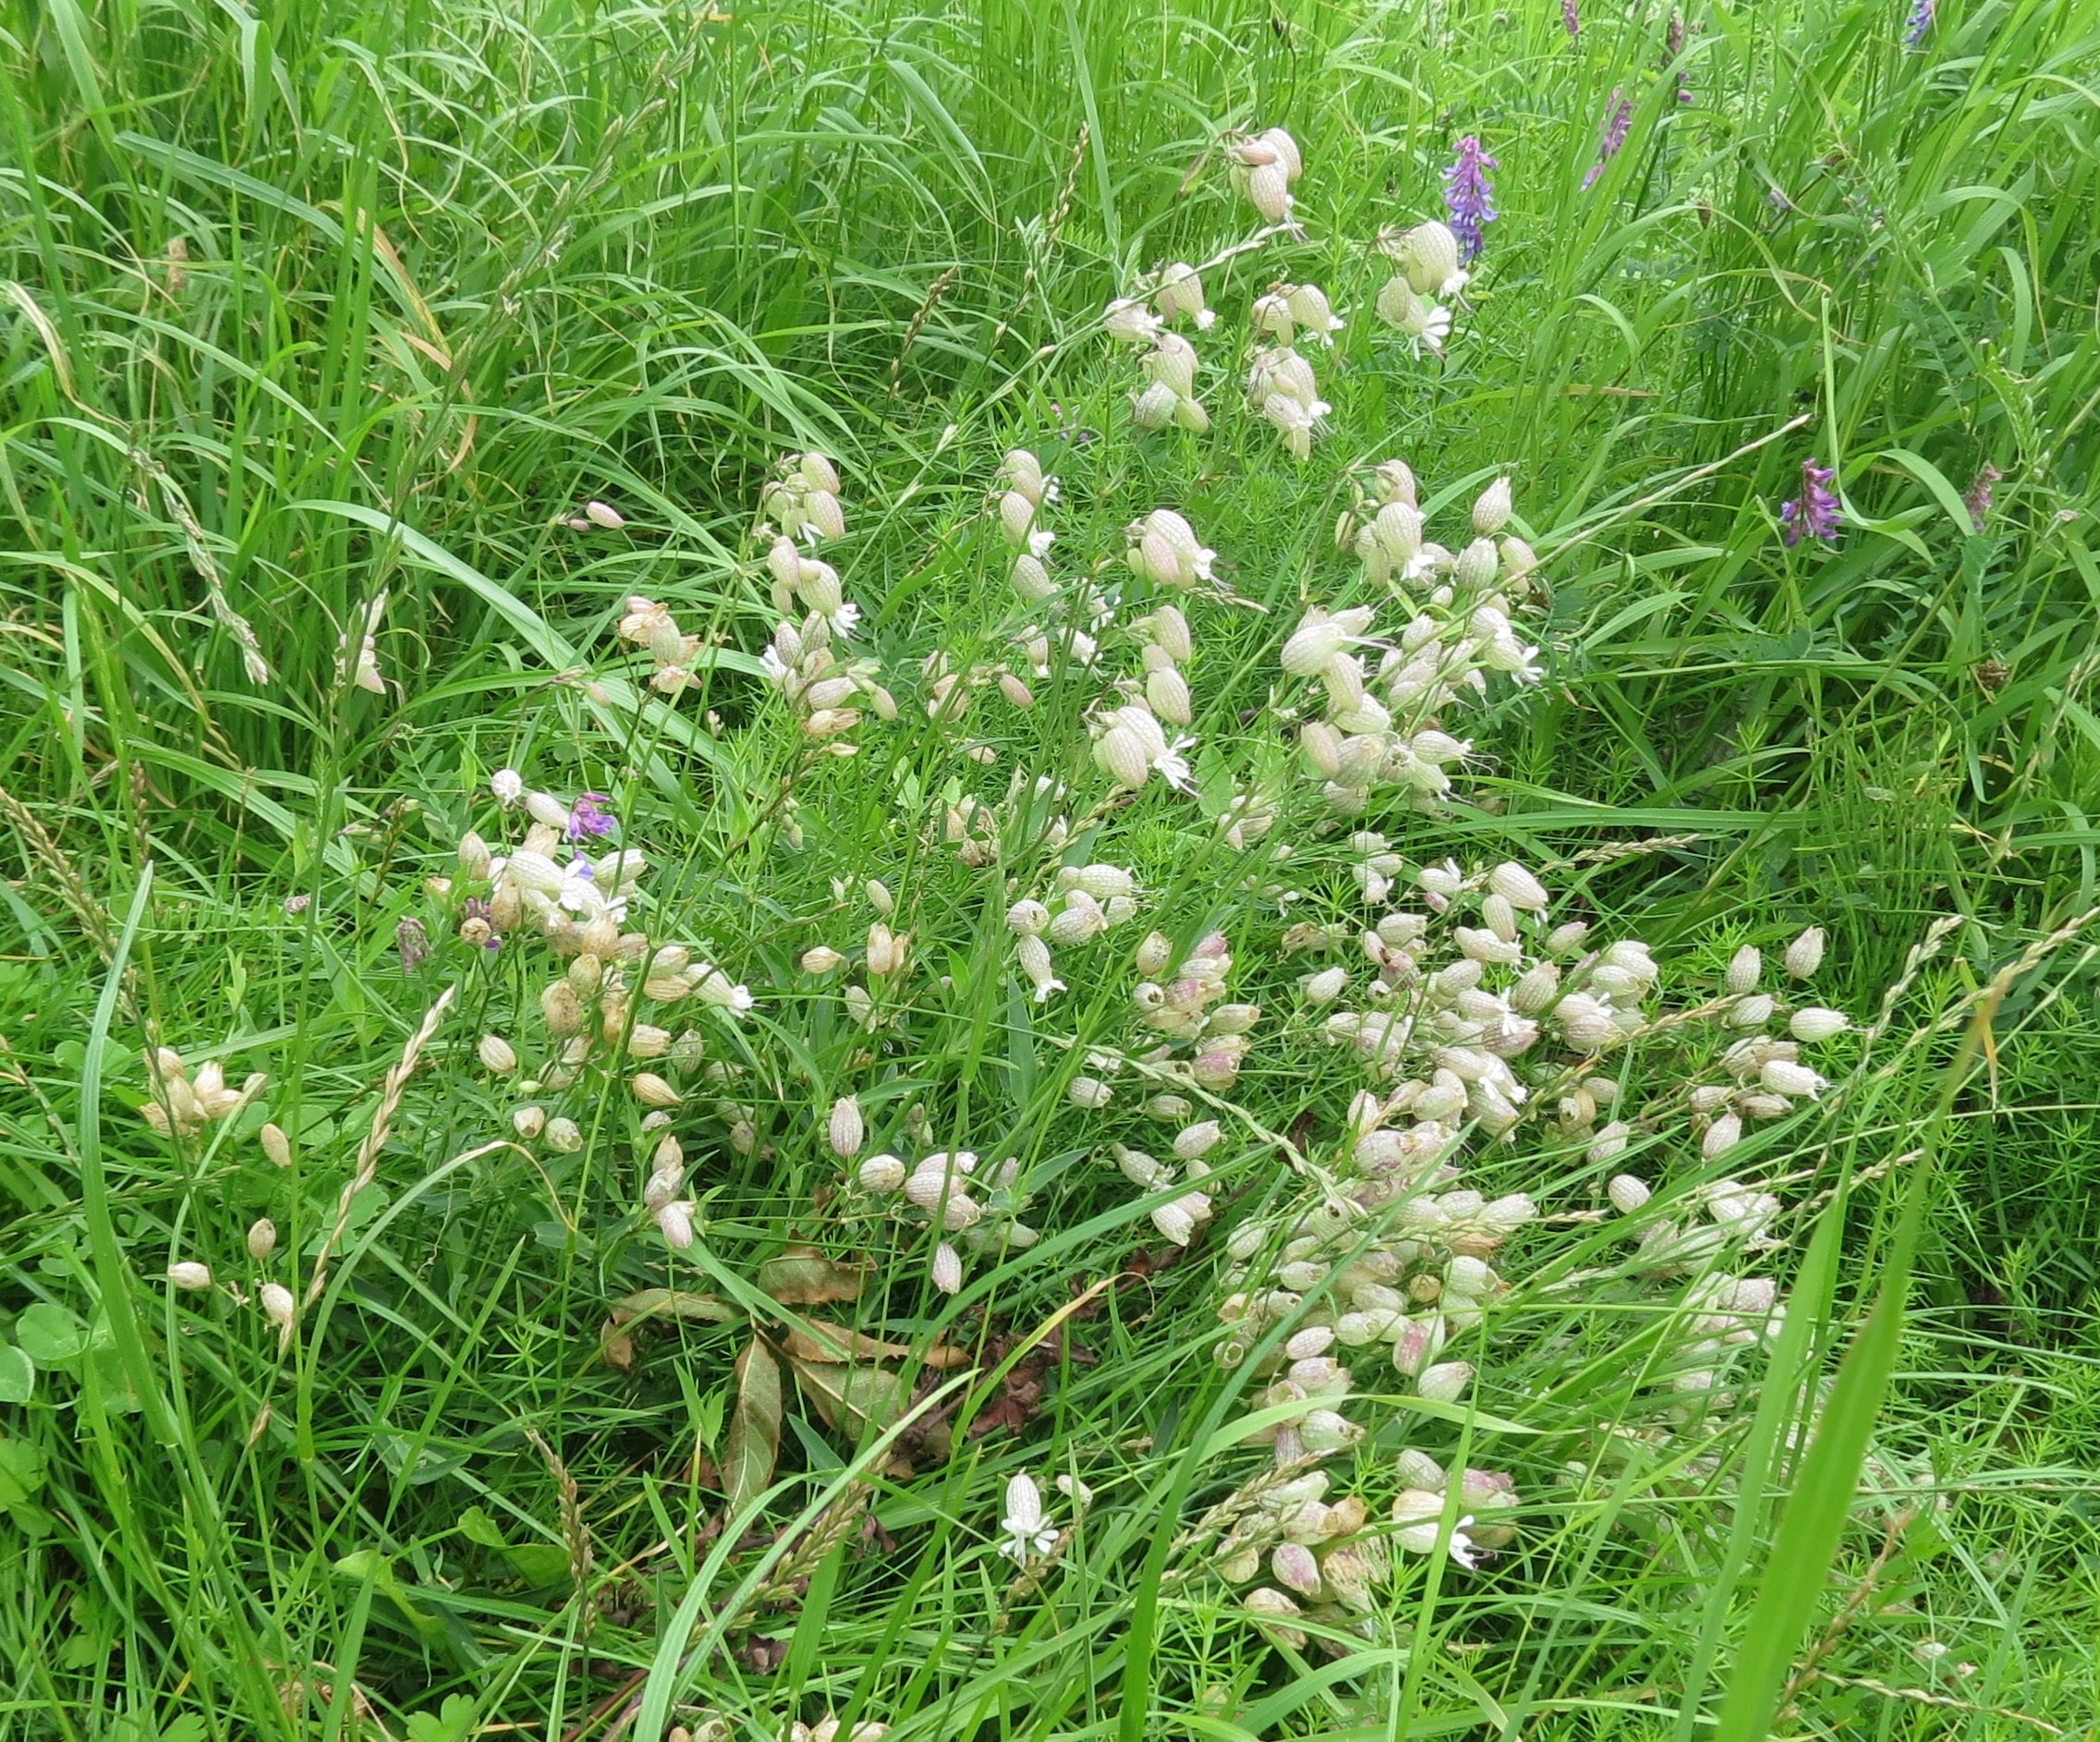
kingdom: Plantae
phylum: Tracheophyta
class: Magnoliopsida
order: Caryophyllales
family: Caryophyllaceae
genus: Silene
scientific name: Silene vulgaris
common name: Blæresmælde
